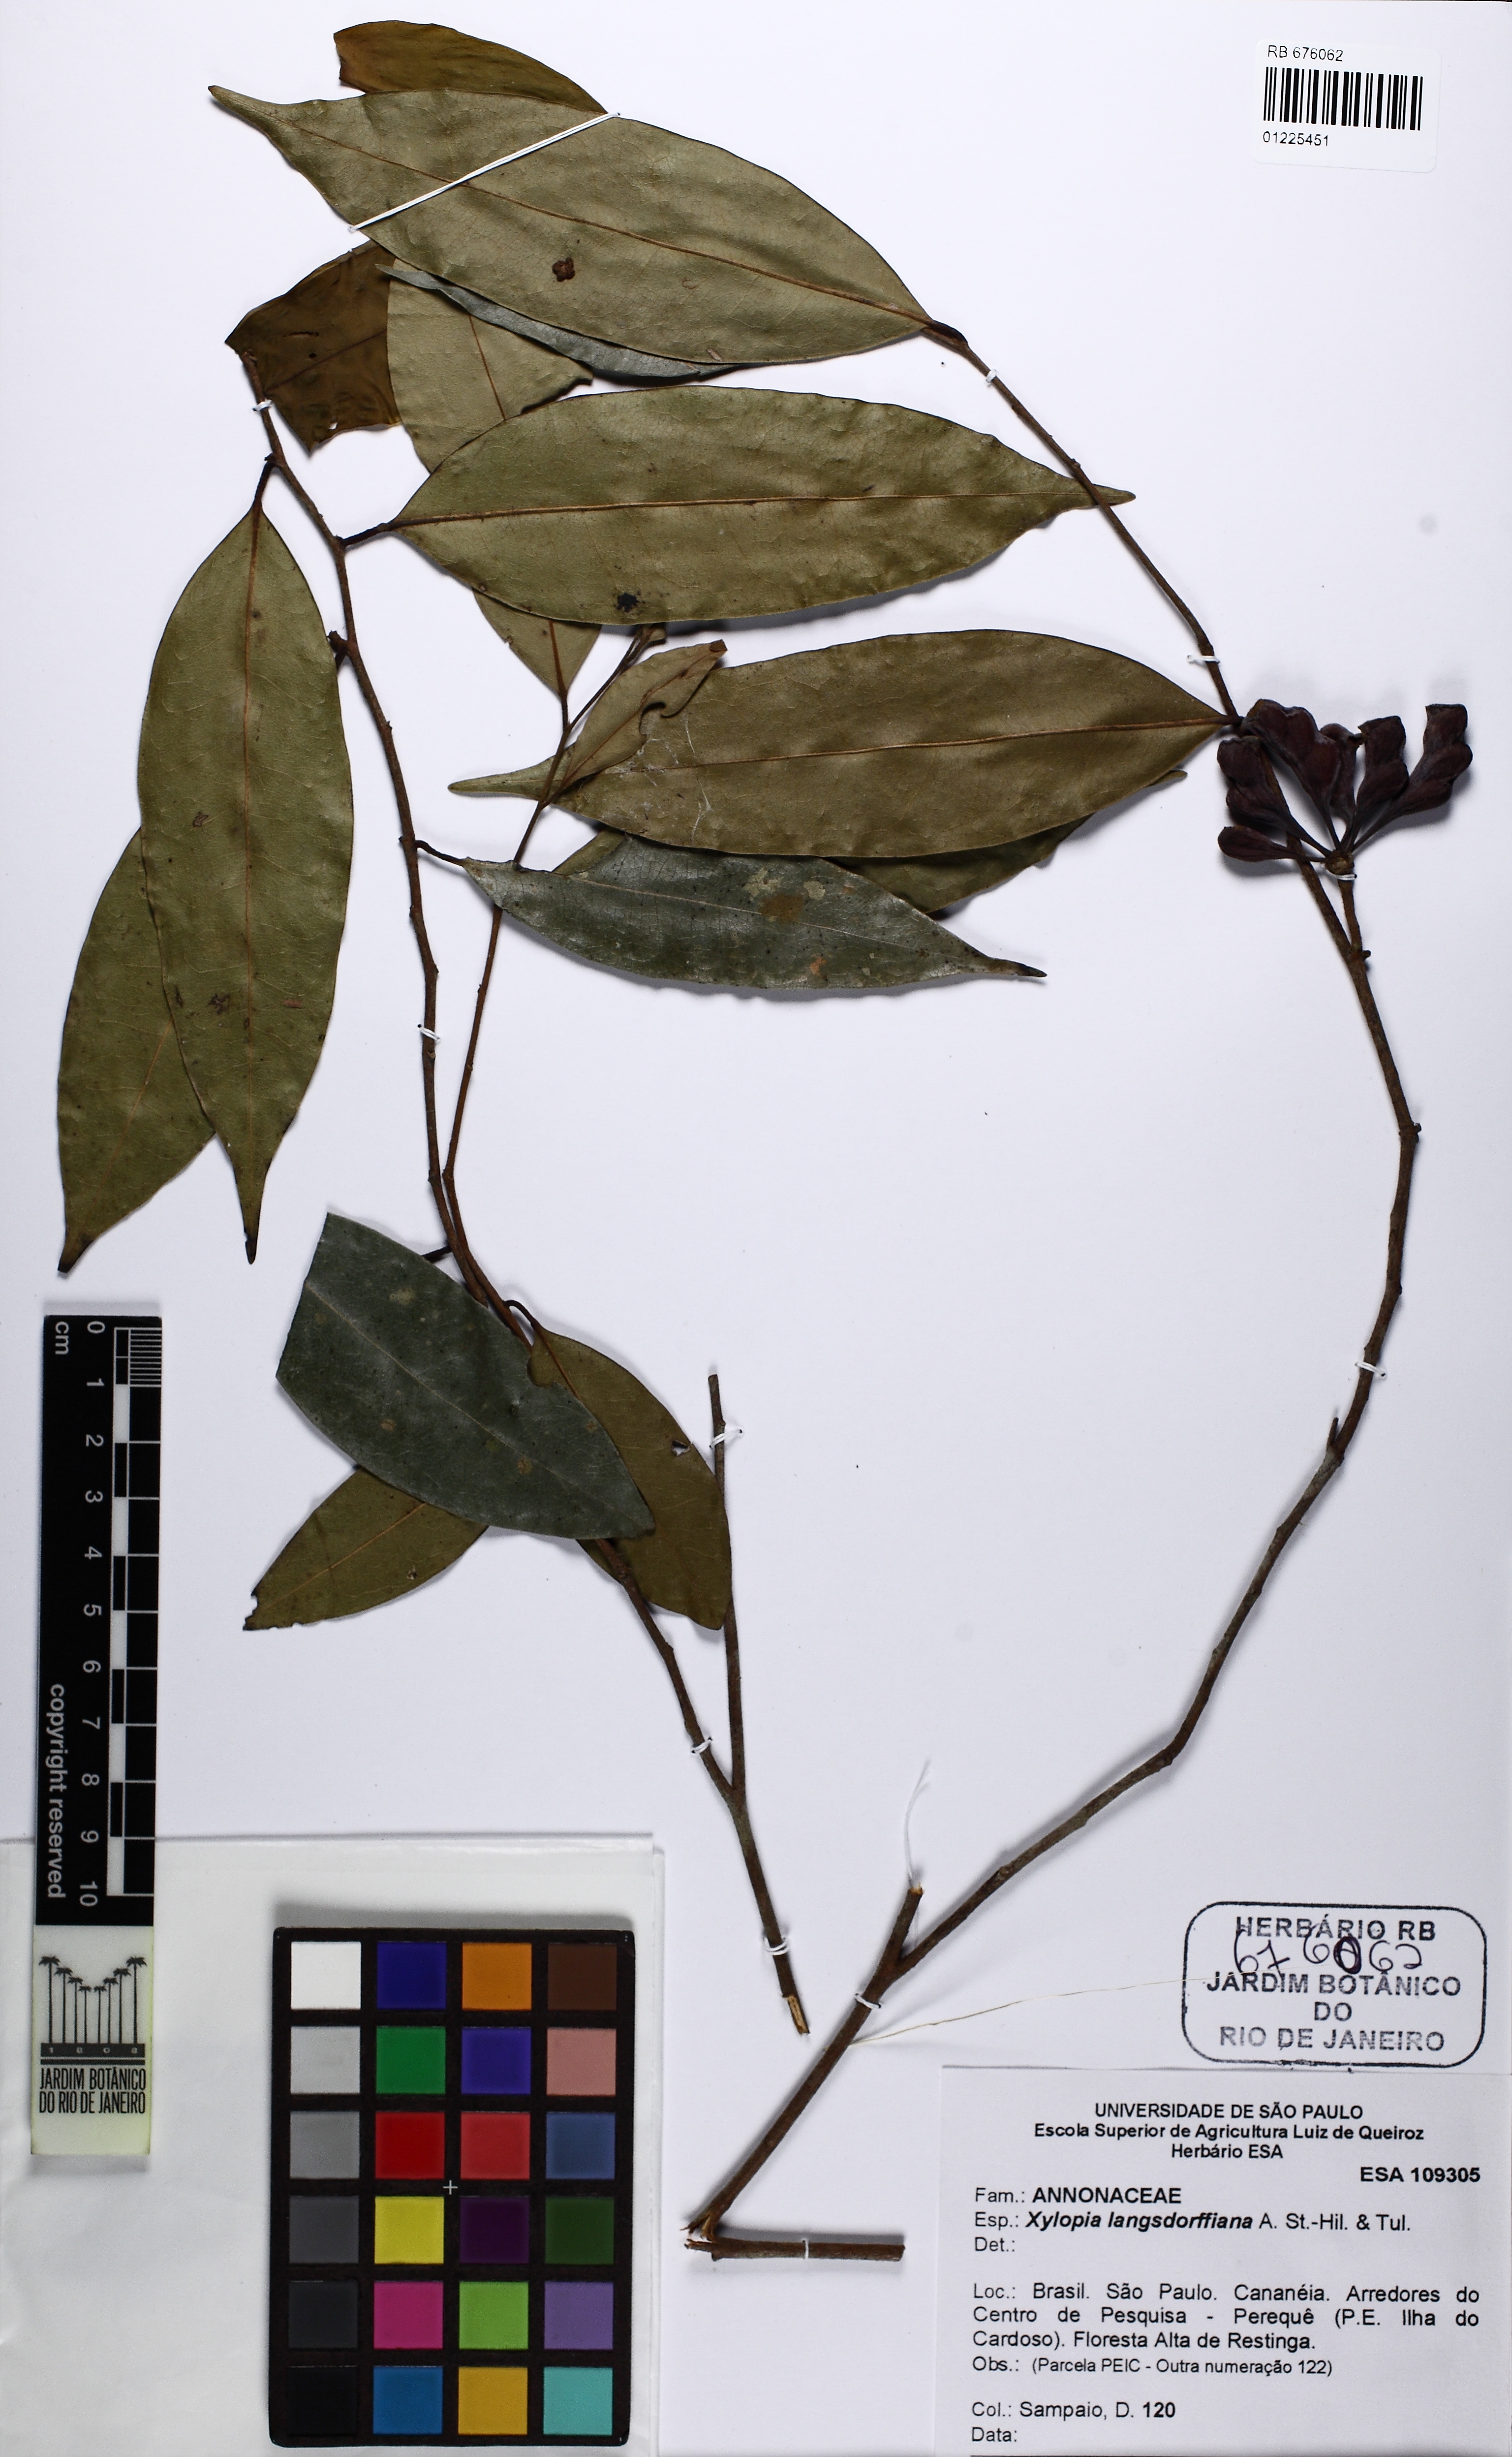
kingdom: Plantae
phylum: Tracheophyta
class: Magnoliopsida
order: Magnoliales
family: Annonaceae
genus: Xylopia
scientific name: Xylopia langsdorfiana
